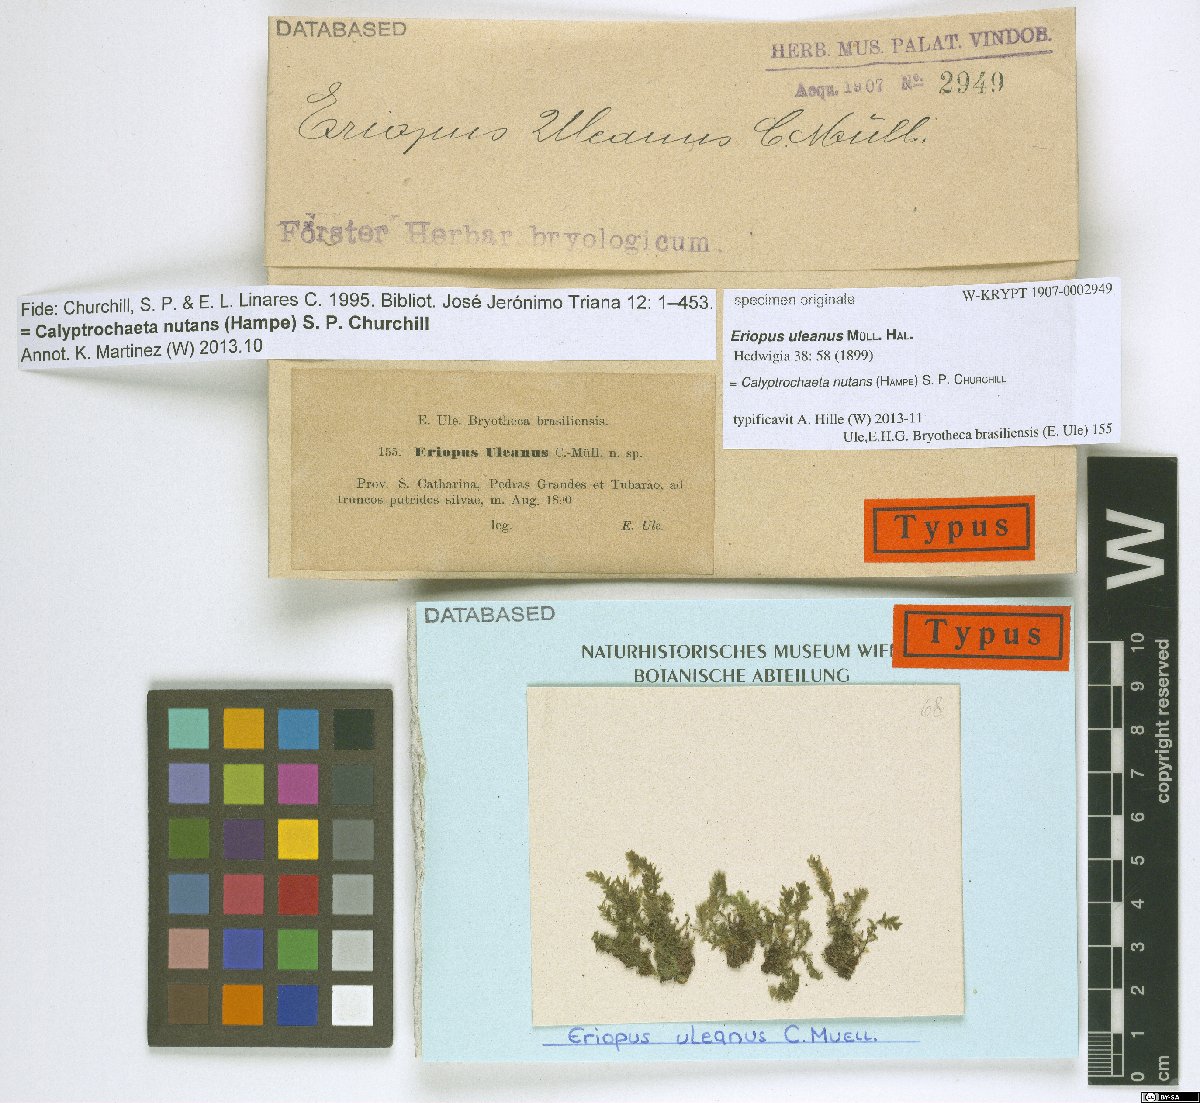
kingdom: Animalia
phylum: Chordata
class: Aves
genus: Eriopus
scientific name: Eriopus
